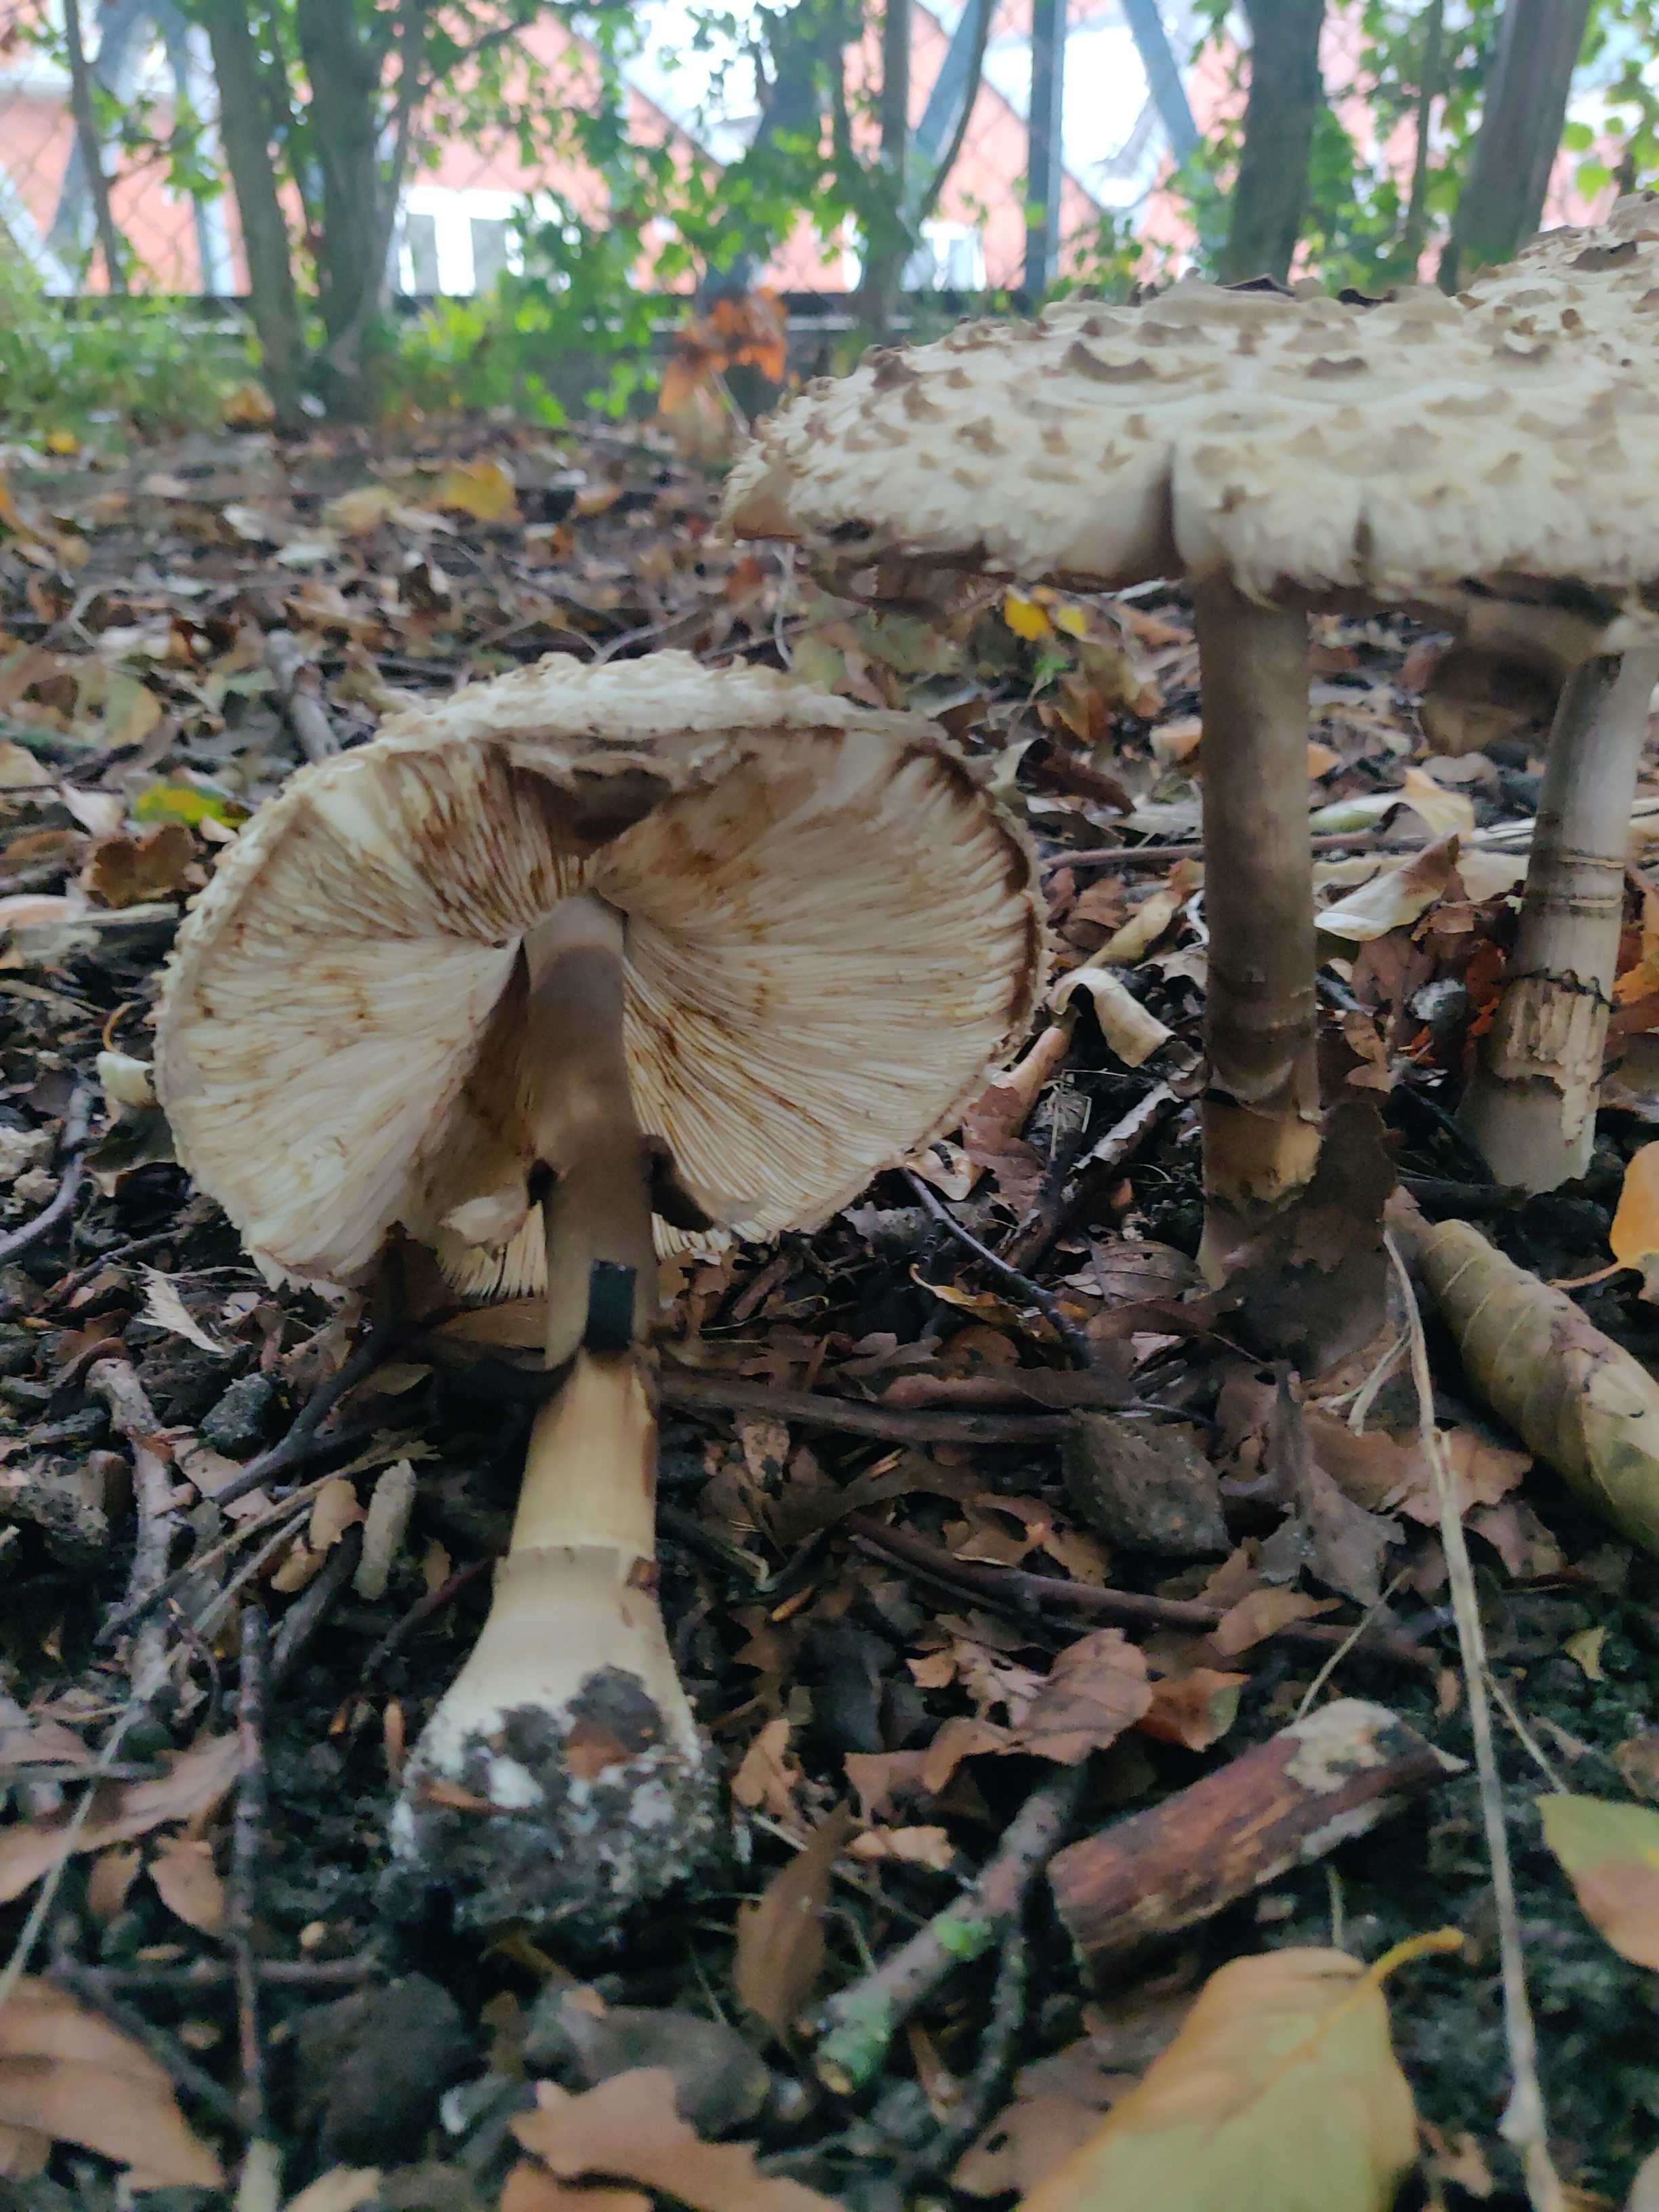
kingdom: Fungi
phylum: Basidiomycota
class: Agaricomycetes
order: Agaricales
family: Agaricaceae
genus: Chlorophyllum
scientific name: Chlorophyllum
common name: rabarberhat
